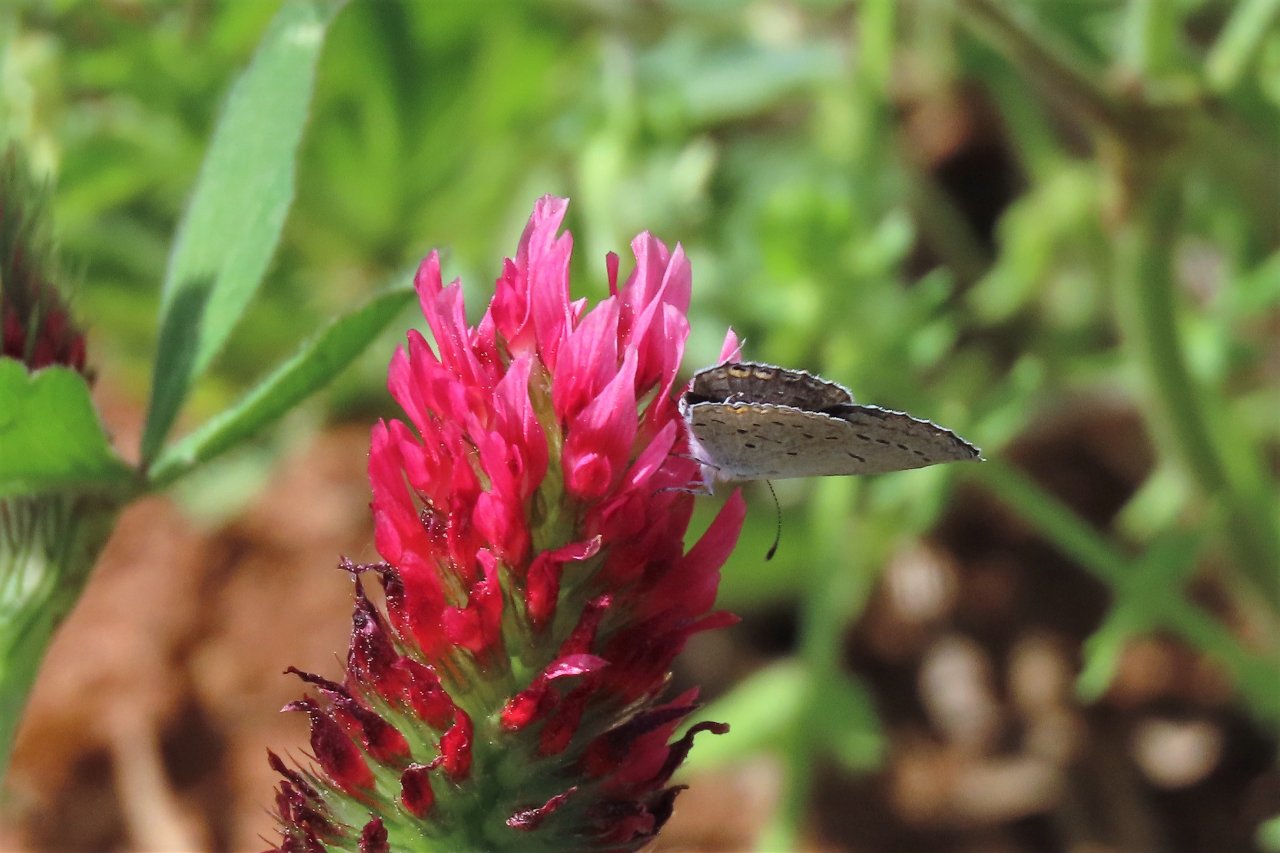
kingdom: Animalia
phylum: Arthropoda
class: Insecta
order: Lepidoptera
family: Lycaenidae
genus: Elkalyce
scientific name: Elkalyce comyntas
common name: Eastern Tailed-Blue
